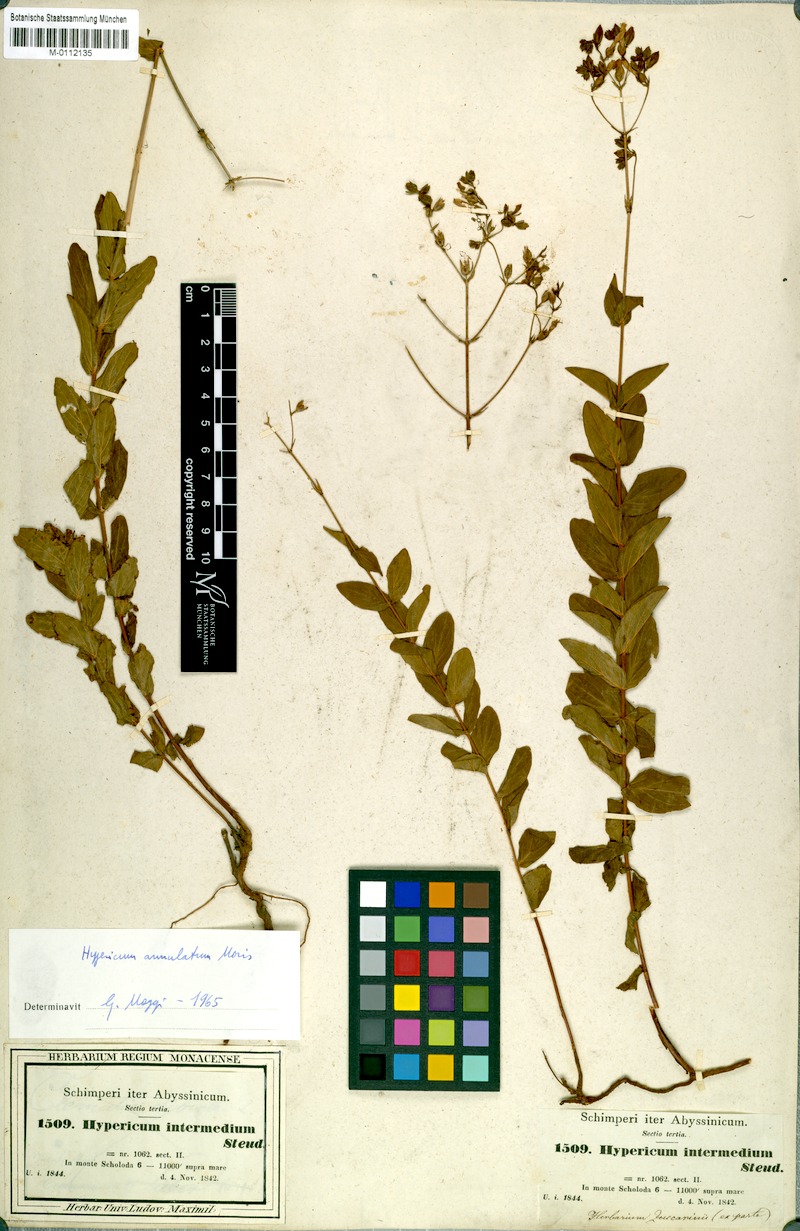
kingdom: Plantae
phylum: Tracheophyta
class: Magnoliopsida
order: Malpighiales
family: Hypericaceae
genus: Hypericum
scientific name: Hypericum annulatum
